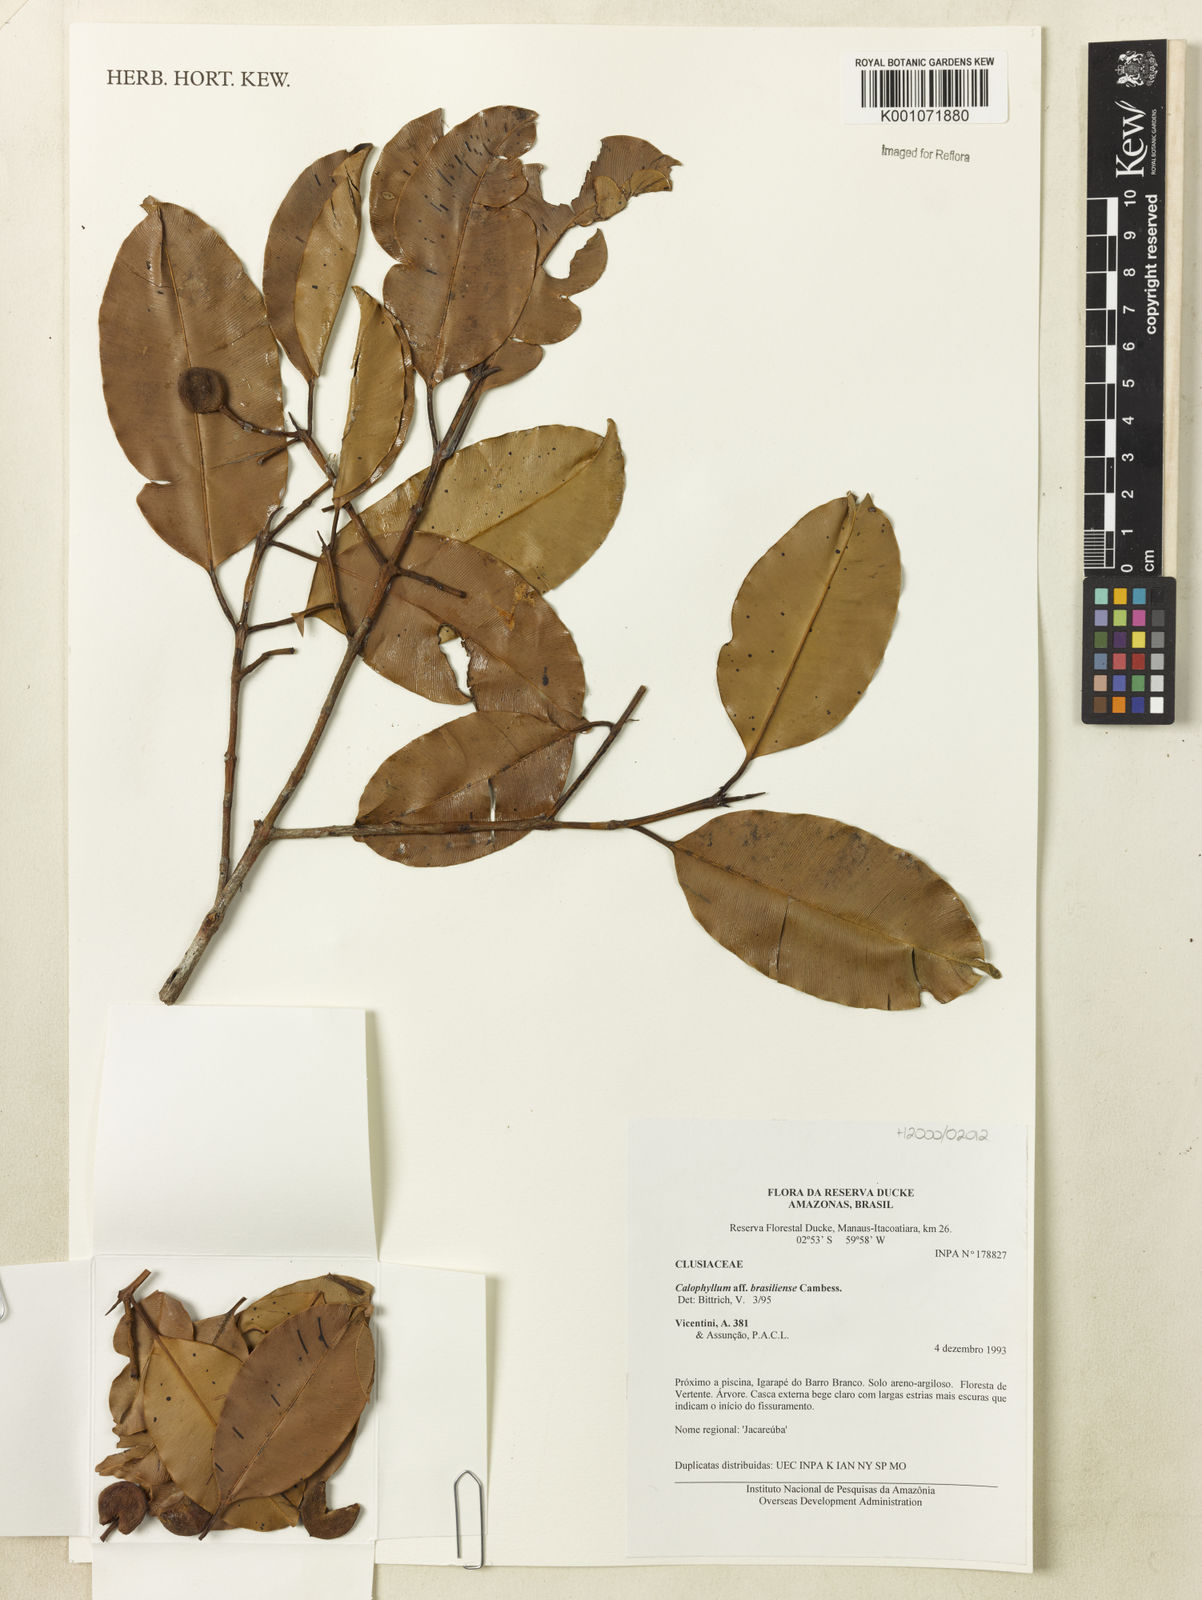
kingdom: Plantae
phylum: Tracheophyta
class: Magnoliopsida
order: Malpighiales
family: Calophyllaceae
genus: Calophyllum
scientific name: Calophyllum brasiliense
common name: Santa maria
